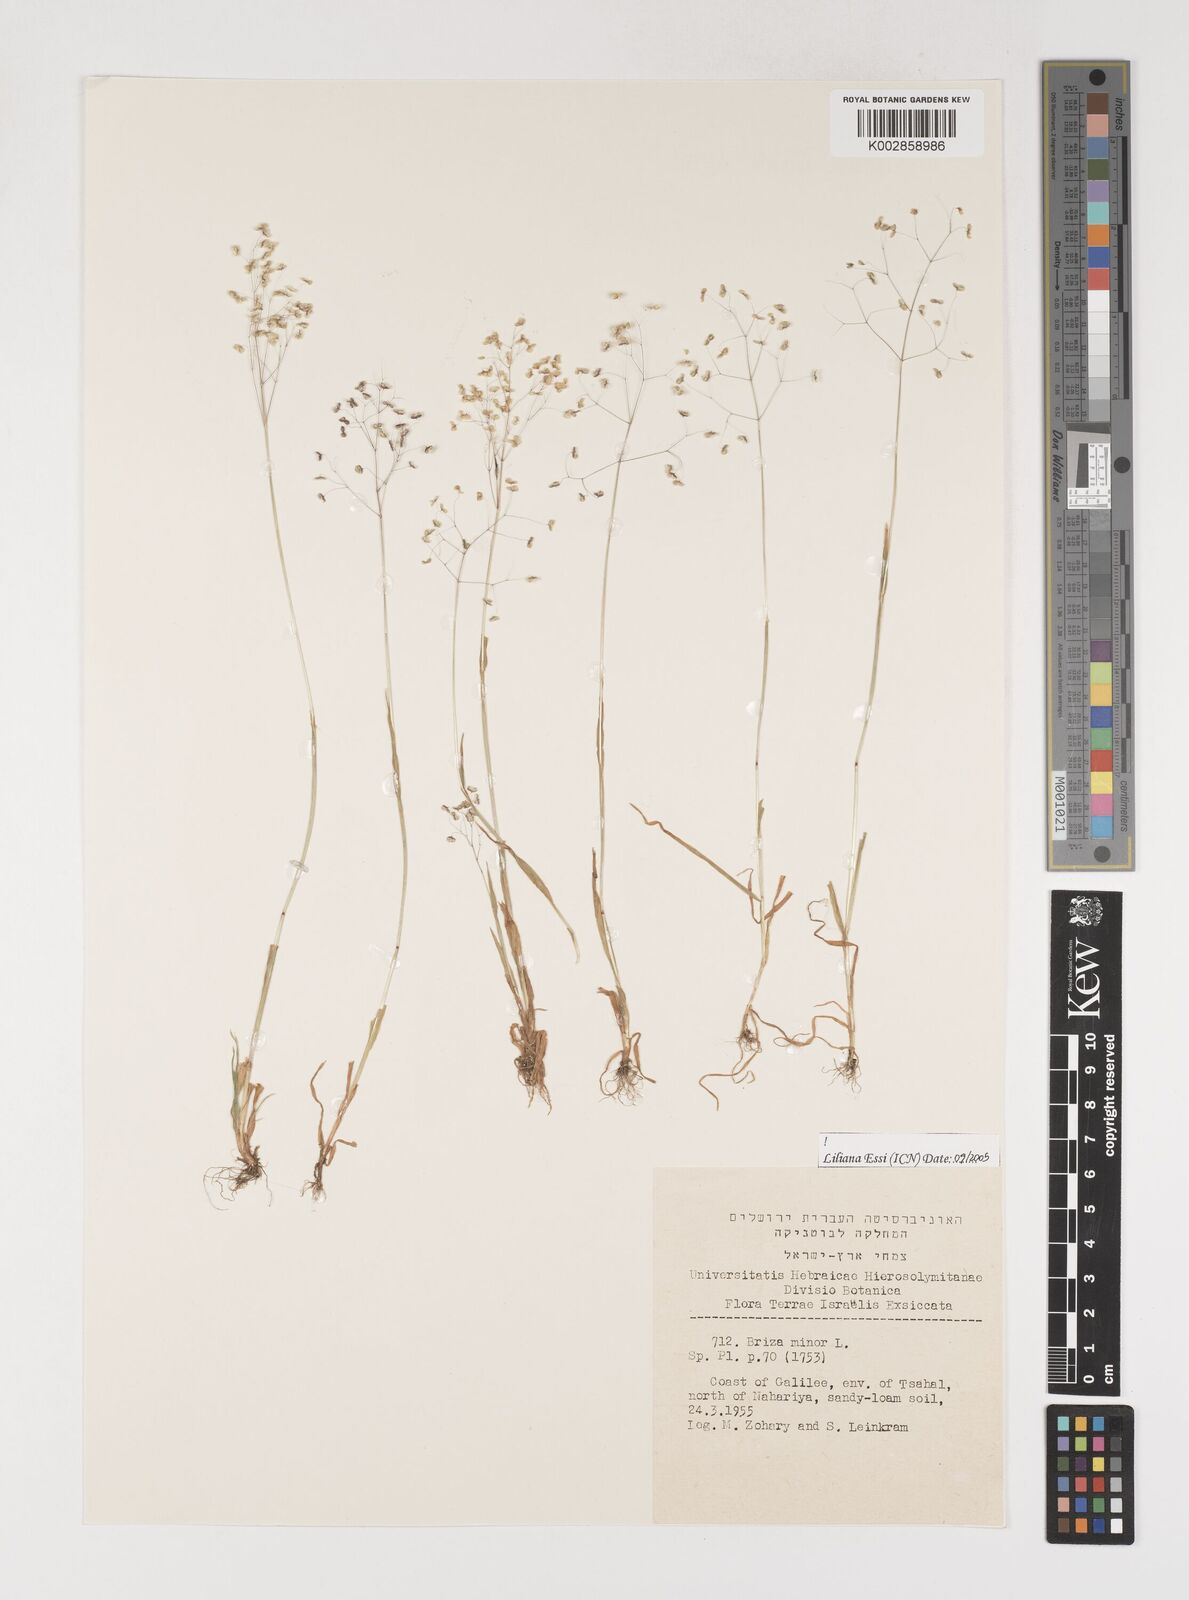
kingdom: Plantae
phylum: Tracheophyta
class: Liliopsida
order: Poales
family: Poaceae
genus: Briza
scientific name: Briza minor
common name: Lesser quaking-grass
